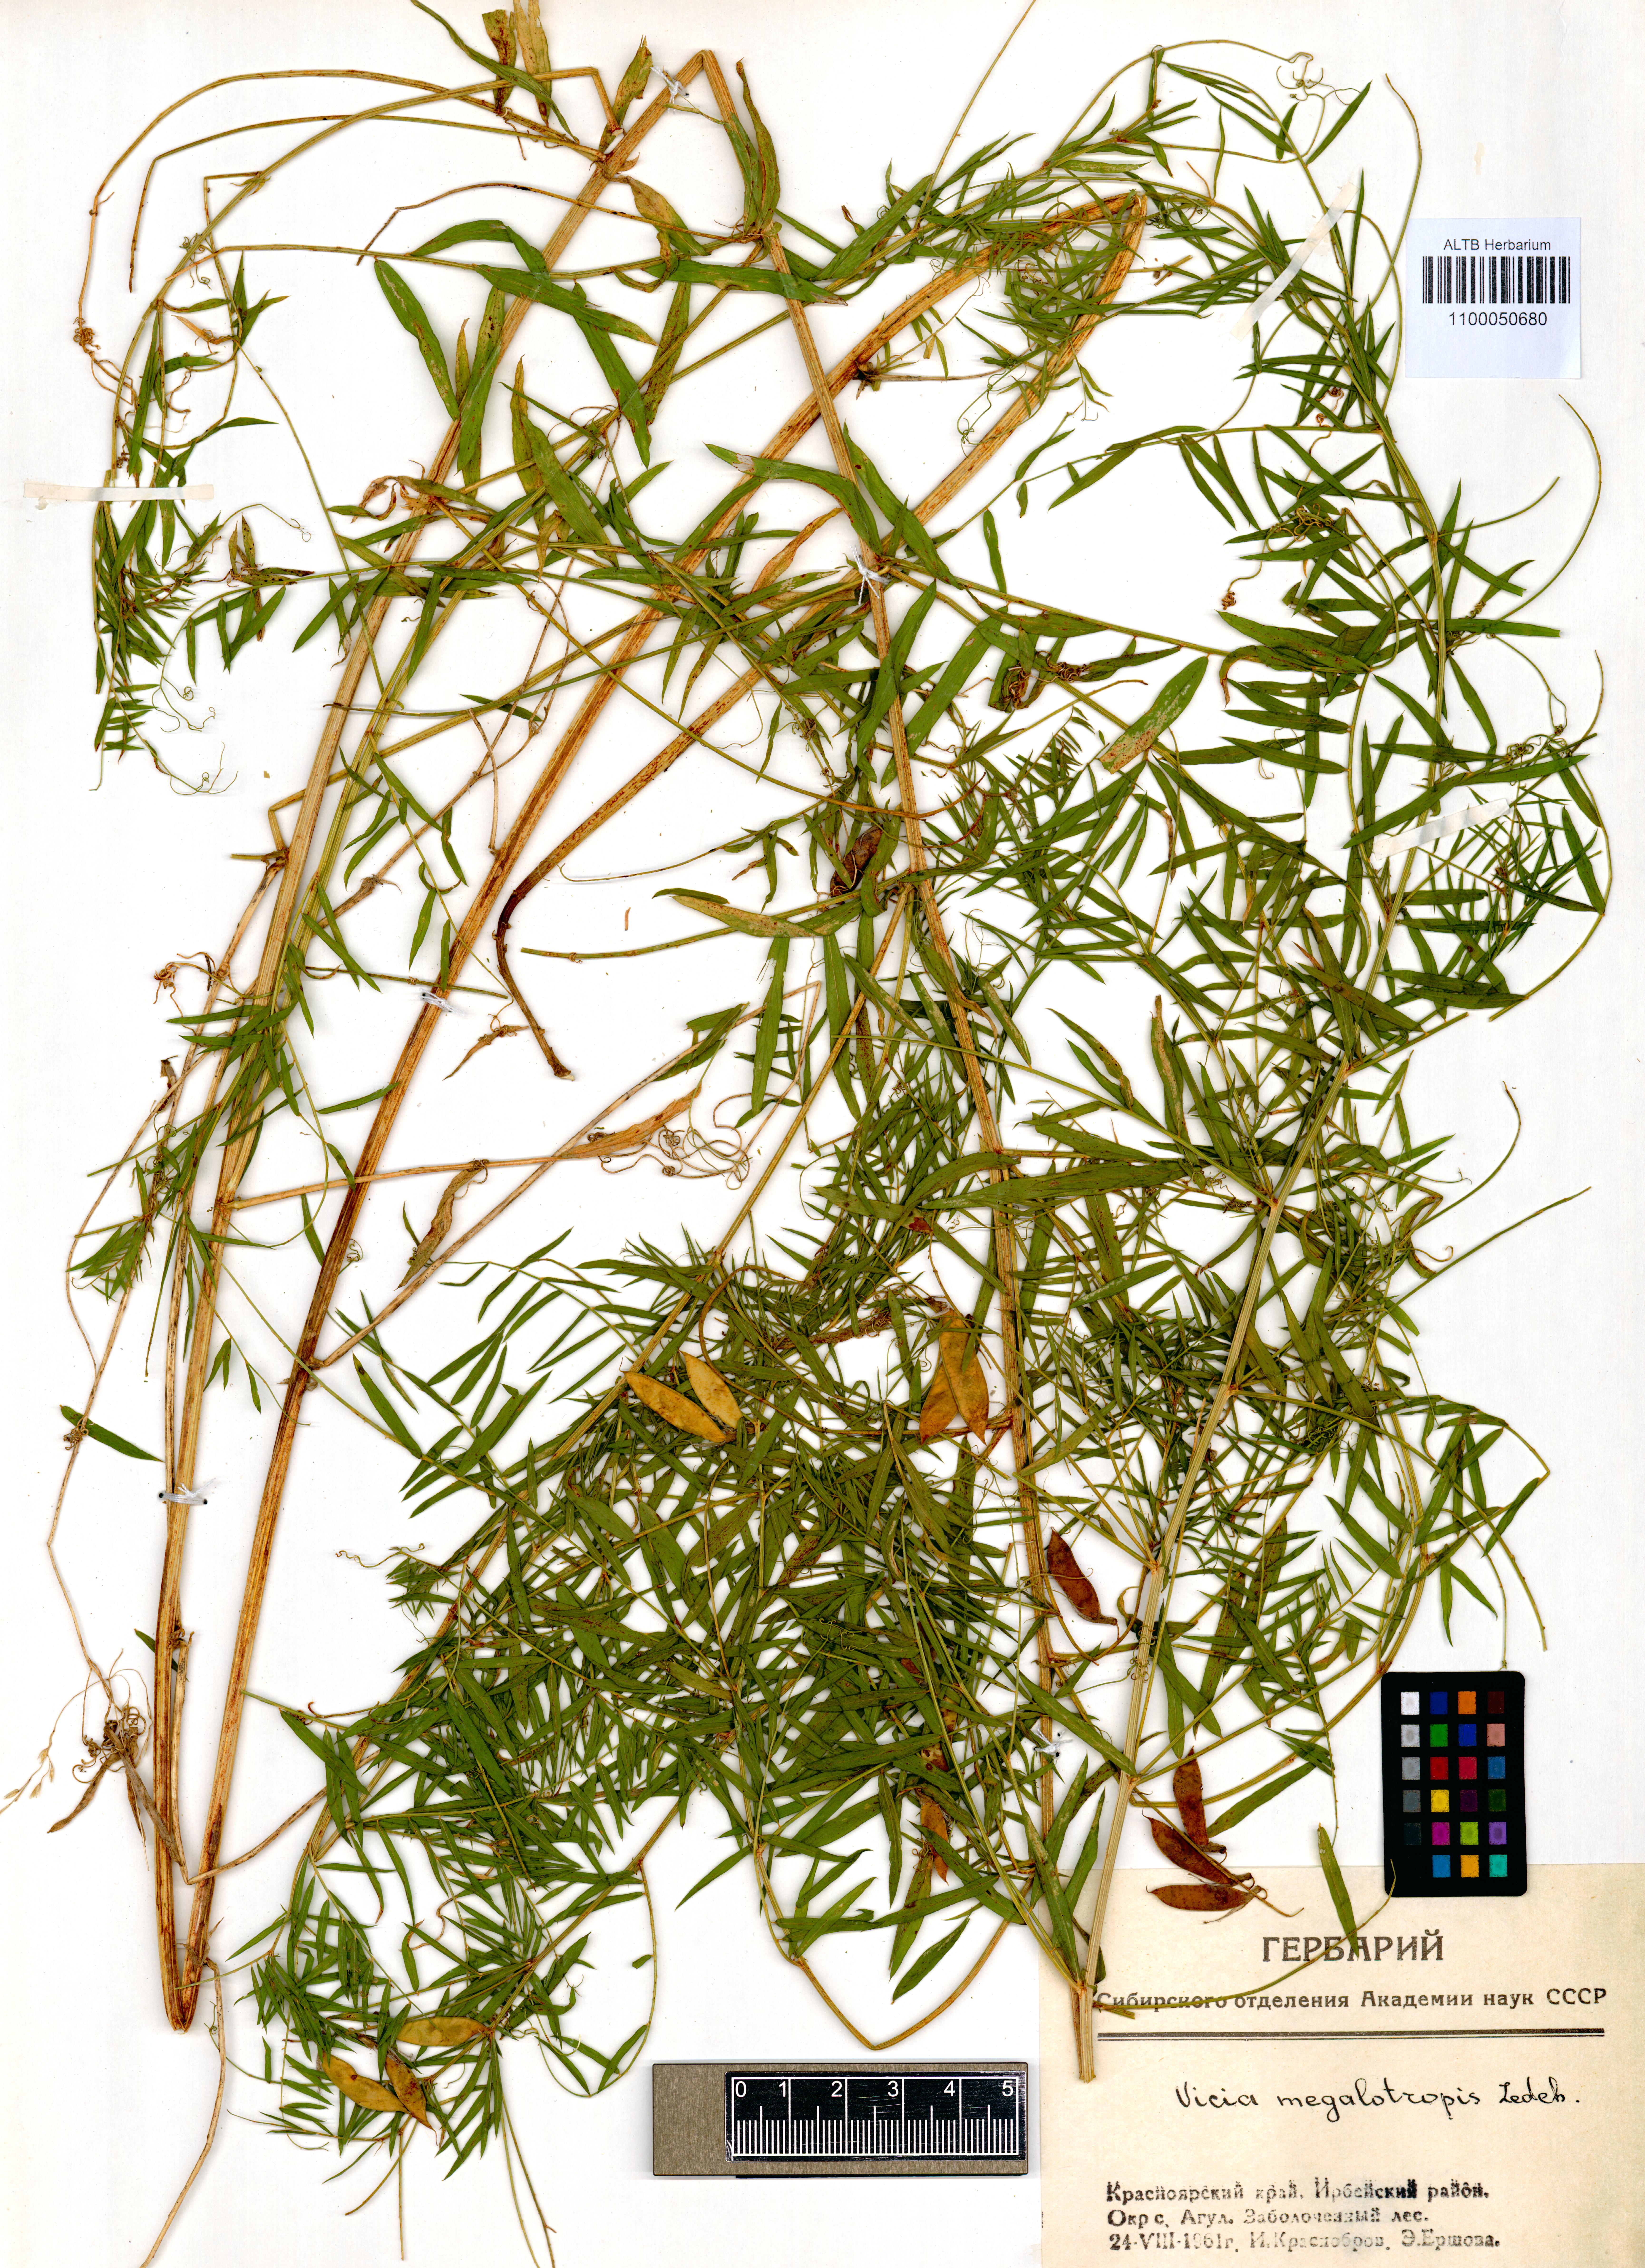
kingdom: Plantae
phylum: Tracheophyta
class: Magnoliopsida
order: Fabales
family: Fabaceae
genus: Vicia
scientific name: Vicia megalotropis
